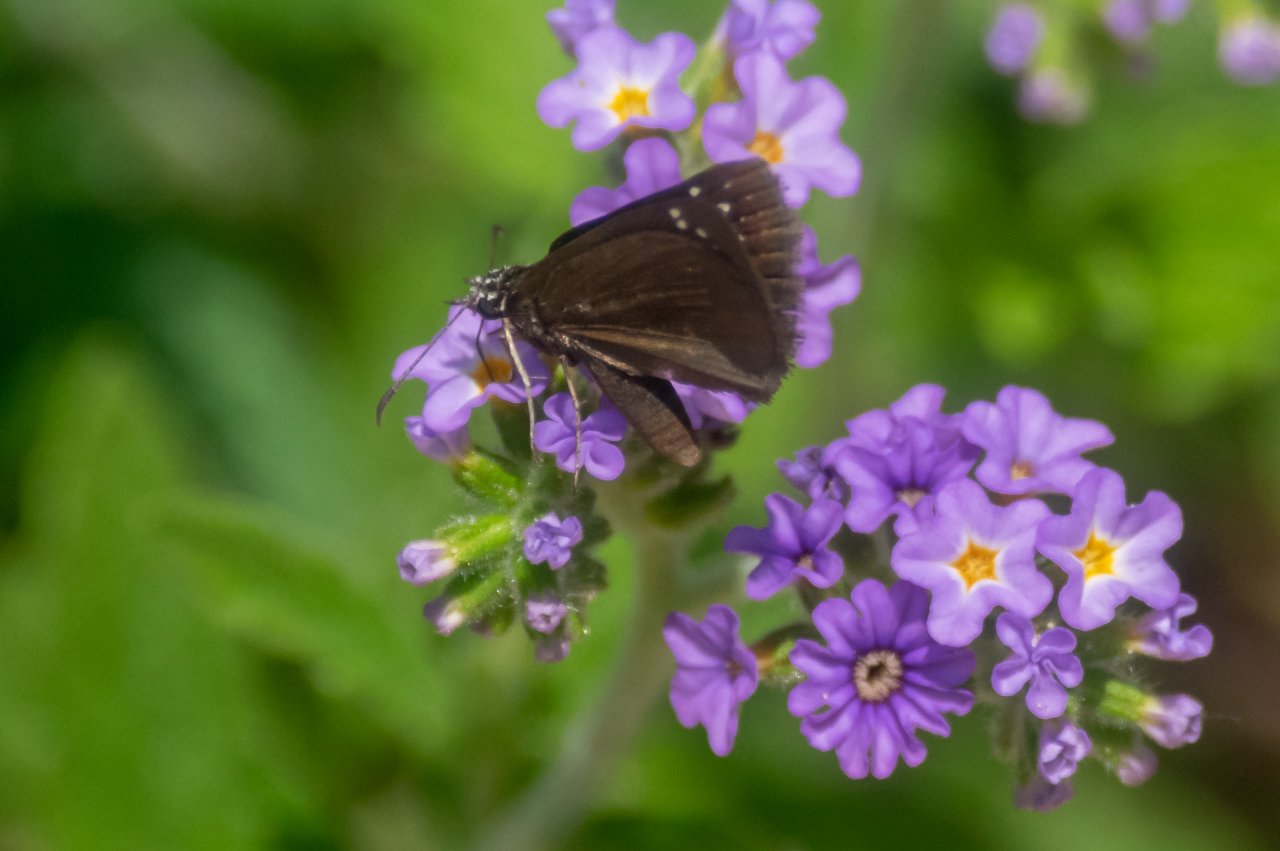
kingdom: Animalia
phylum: Arthropoda
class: Insecta
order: Lepidoptera
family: Hesperiidae
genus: Pholisora
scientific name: Pholisora catullus
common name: Common Sootywing
